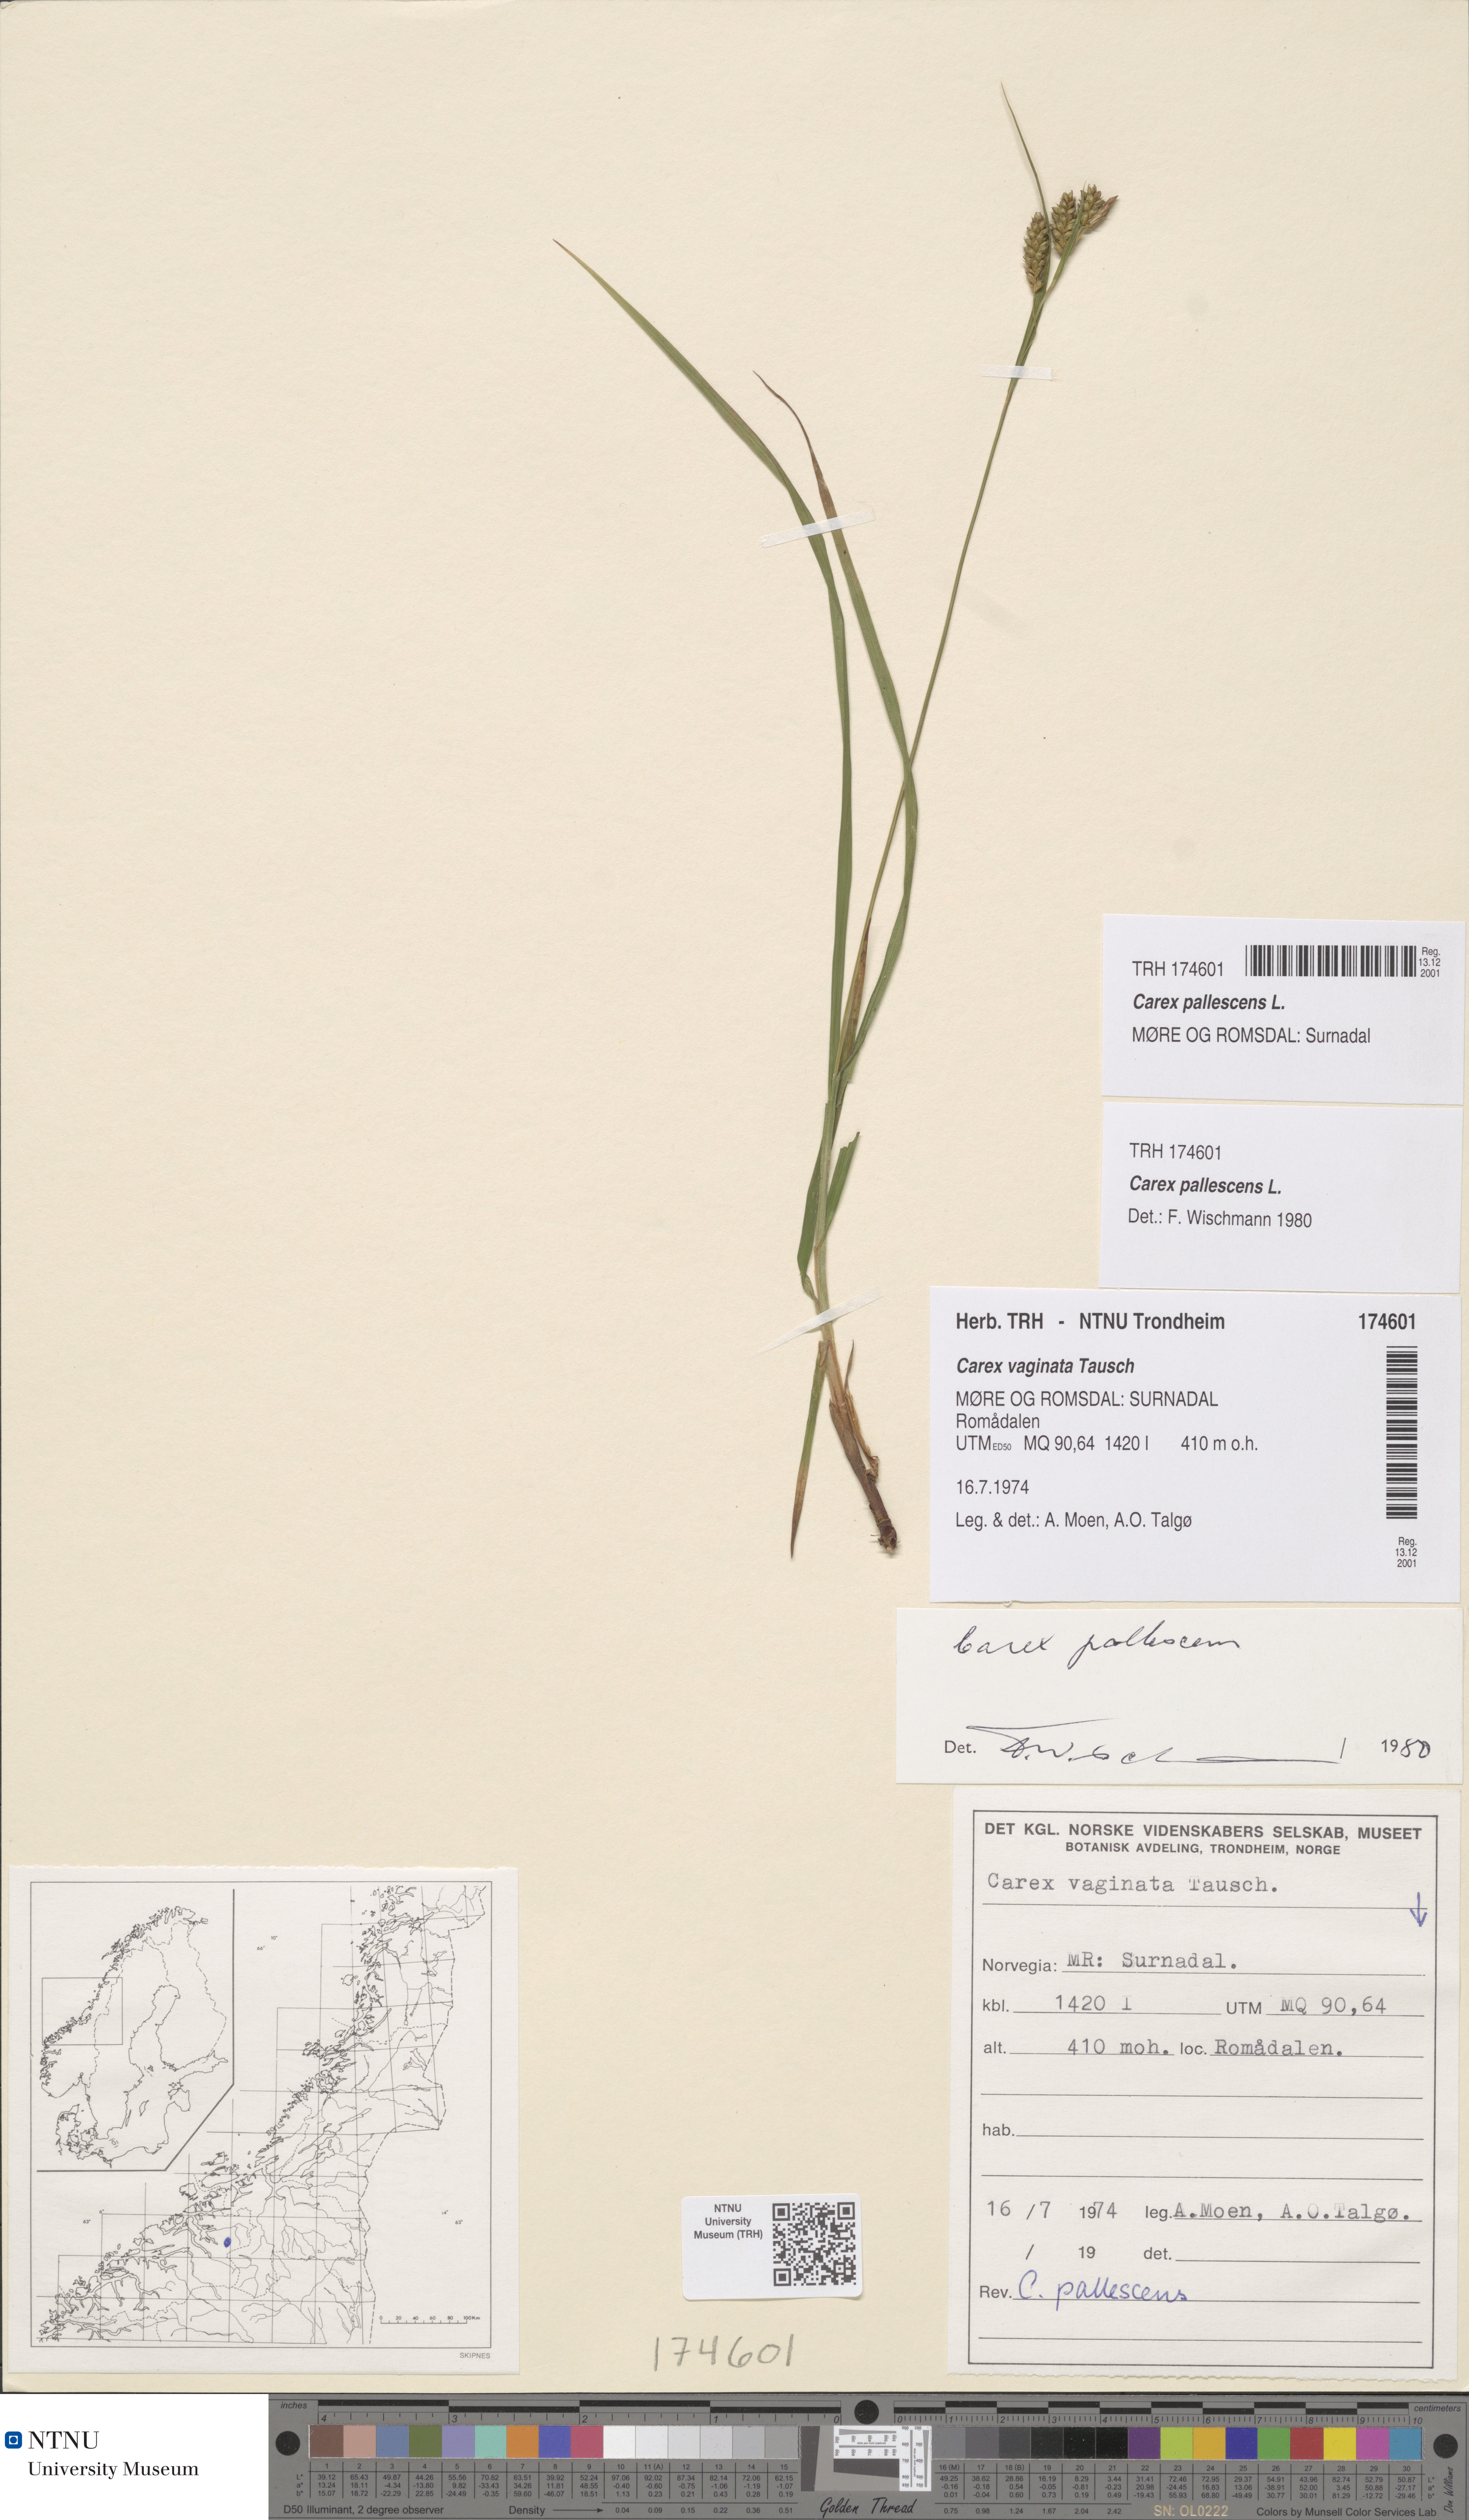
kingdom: Plantae
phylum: Tracheophyta
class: Liliopsida
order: Poales
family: Cyperaceae
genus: Carex
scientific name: Carex pallescens
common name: Pale sedge
